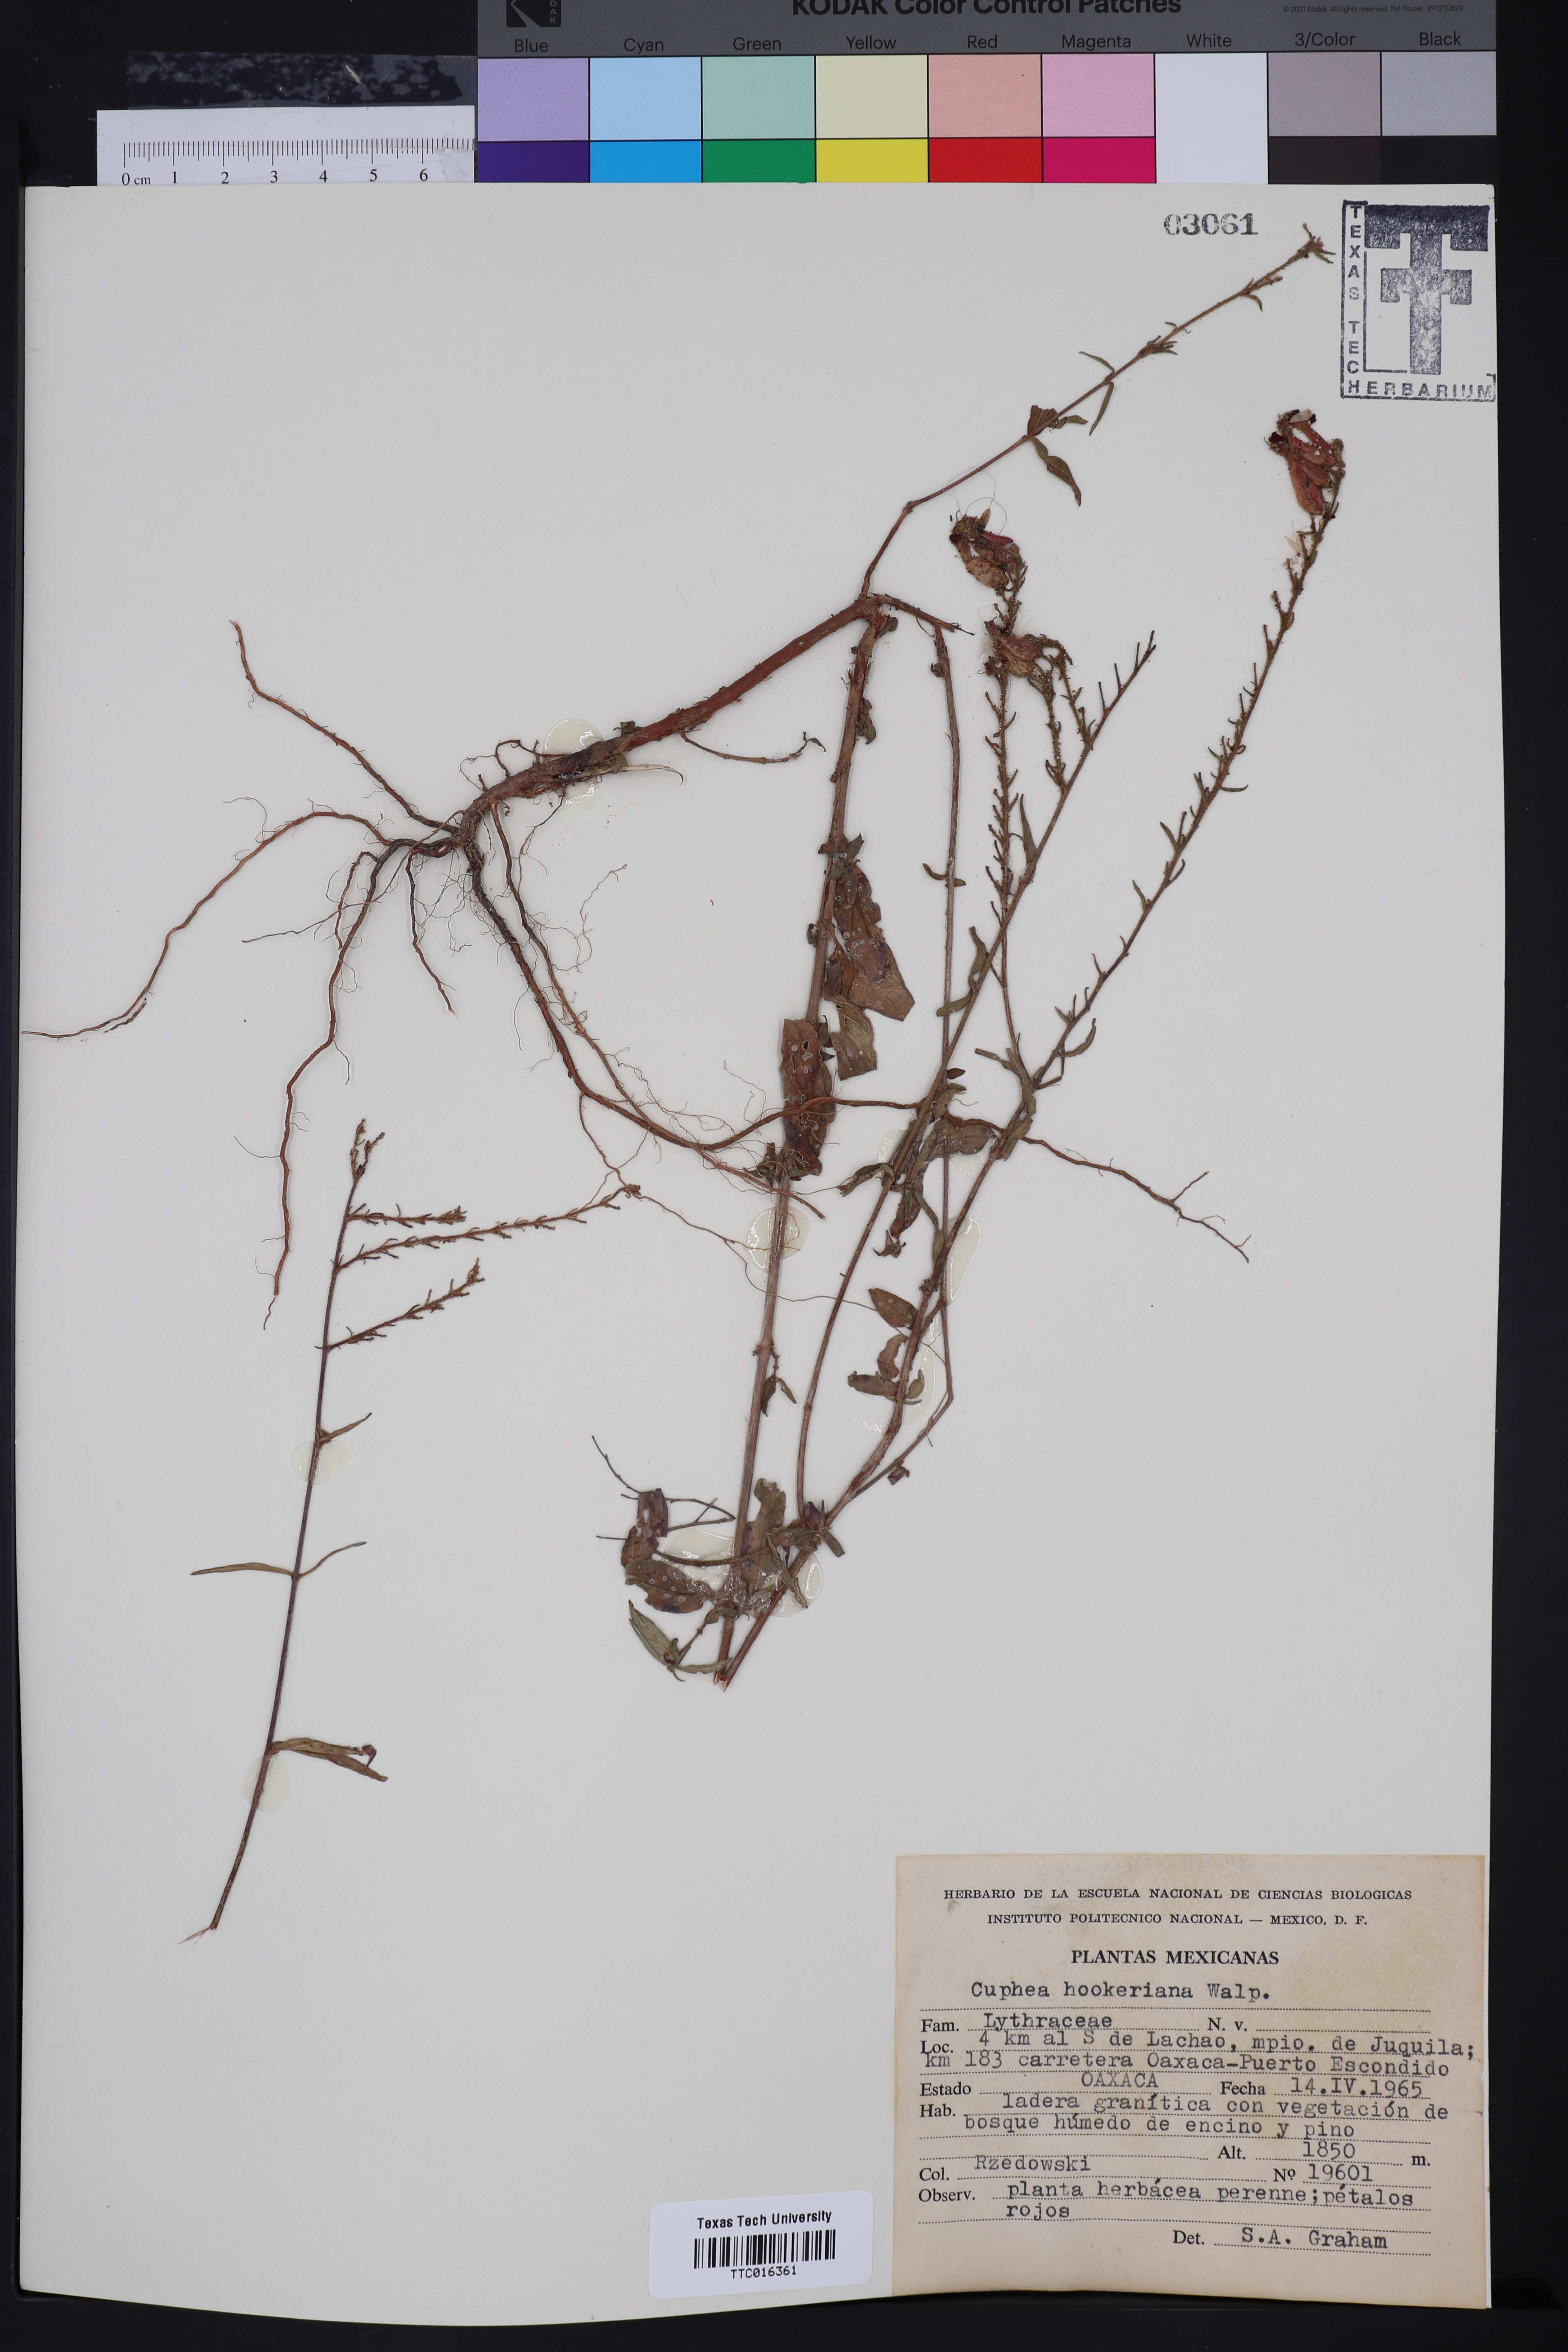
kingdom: Plantae
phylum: Tracheophyta
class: Magnoliopsida
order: Myrtales
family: Lythraceae
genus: Cuphea
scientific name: Cuphea hookeriana
